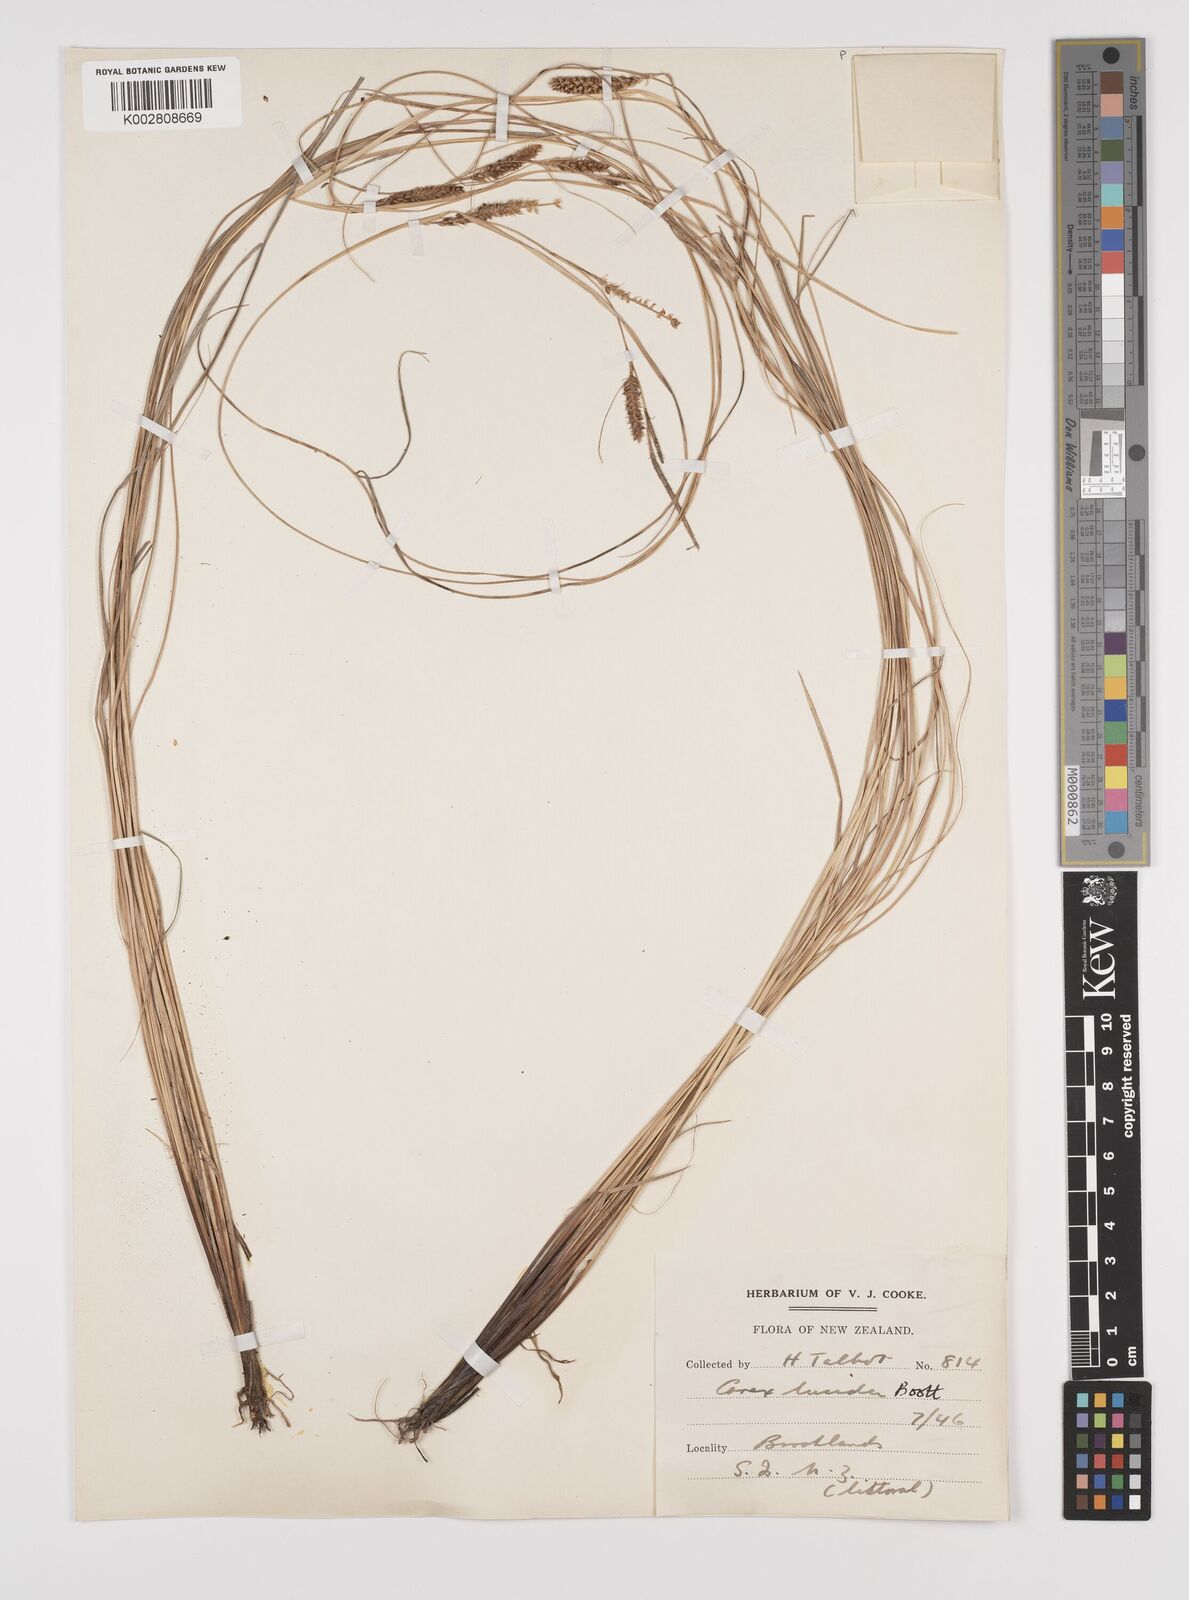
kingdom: Plantae
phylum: Tracheophyta
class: Liliopsida
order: Poales
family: Cyperaceae
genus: Carex
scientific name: Carex flagellifera
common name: Glen murray tussock
